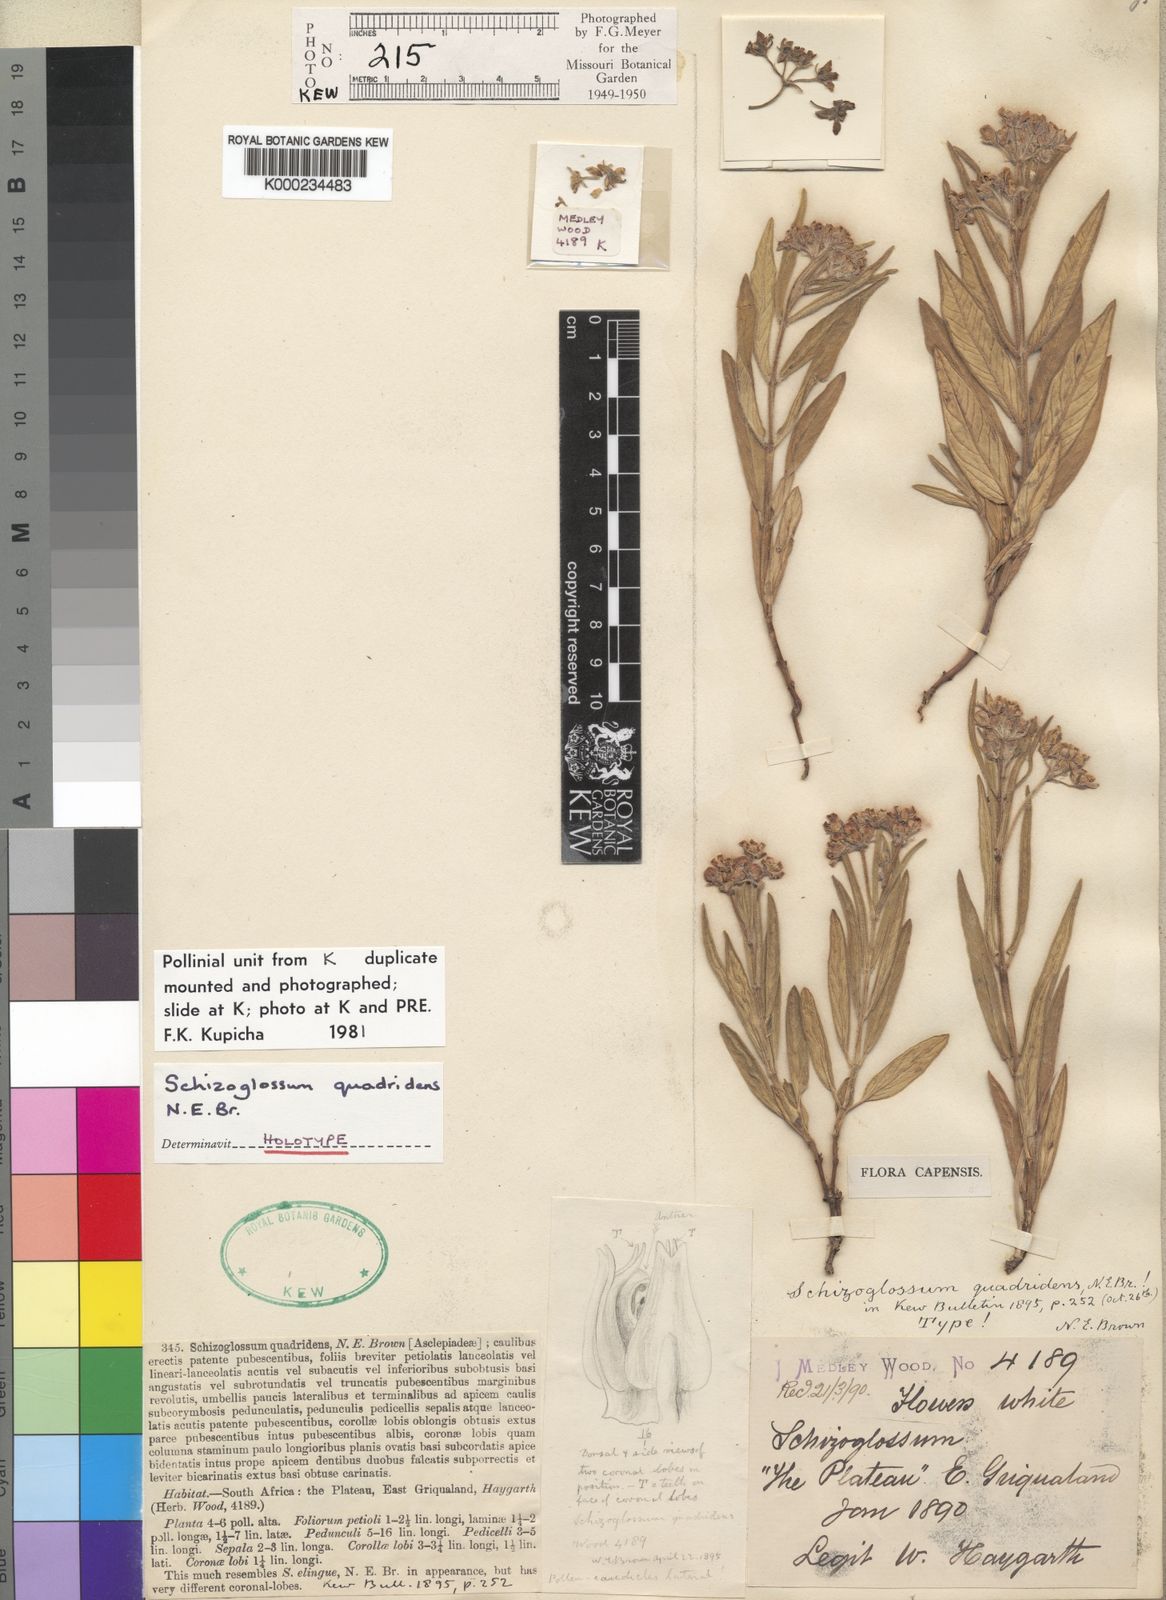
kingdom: Plantae
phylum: Tracheophyta
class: Magnoliopsida
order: Gentianales
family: Apocynaceae
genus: Schizoglossum
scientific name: Schizoglossum quadridens
